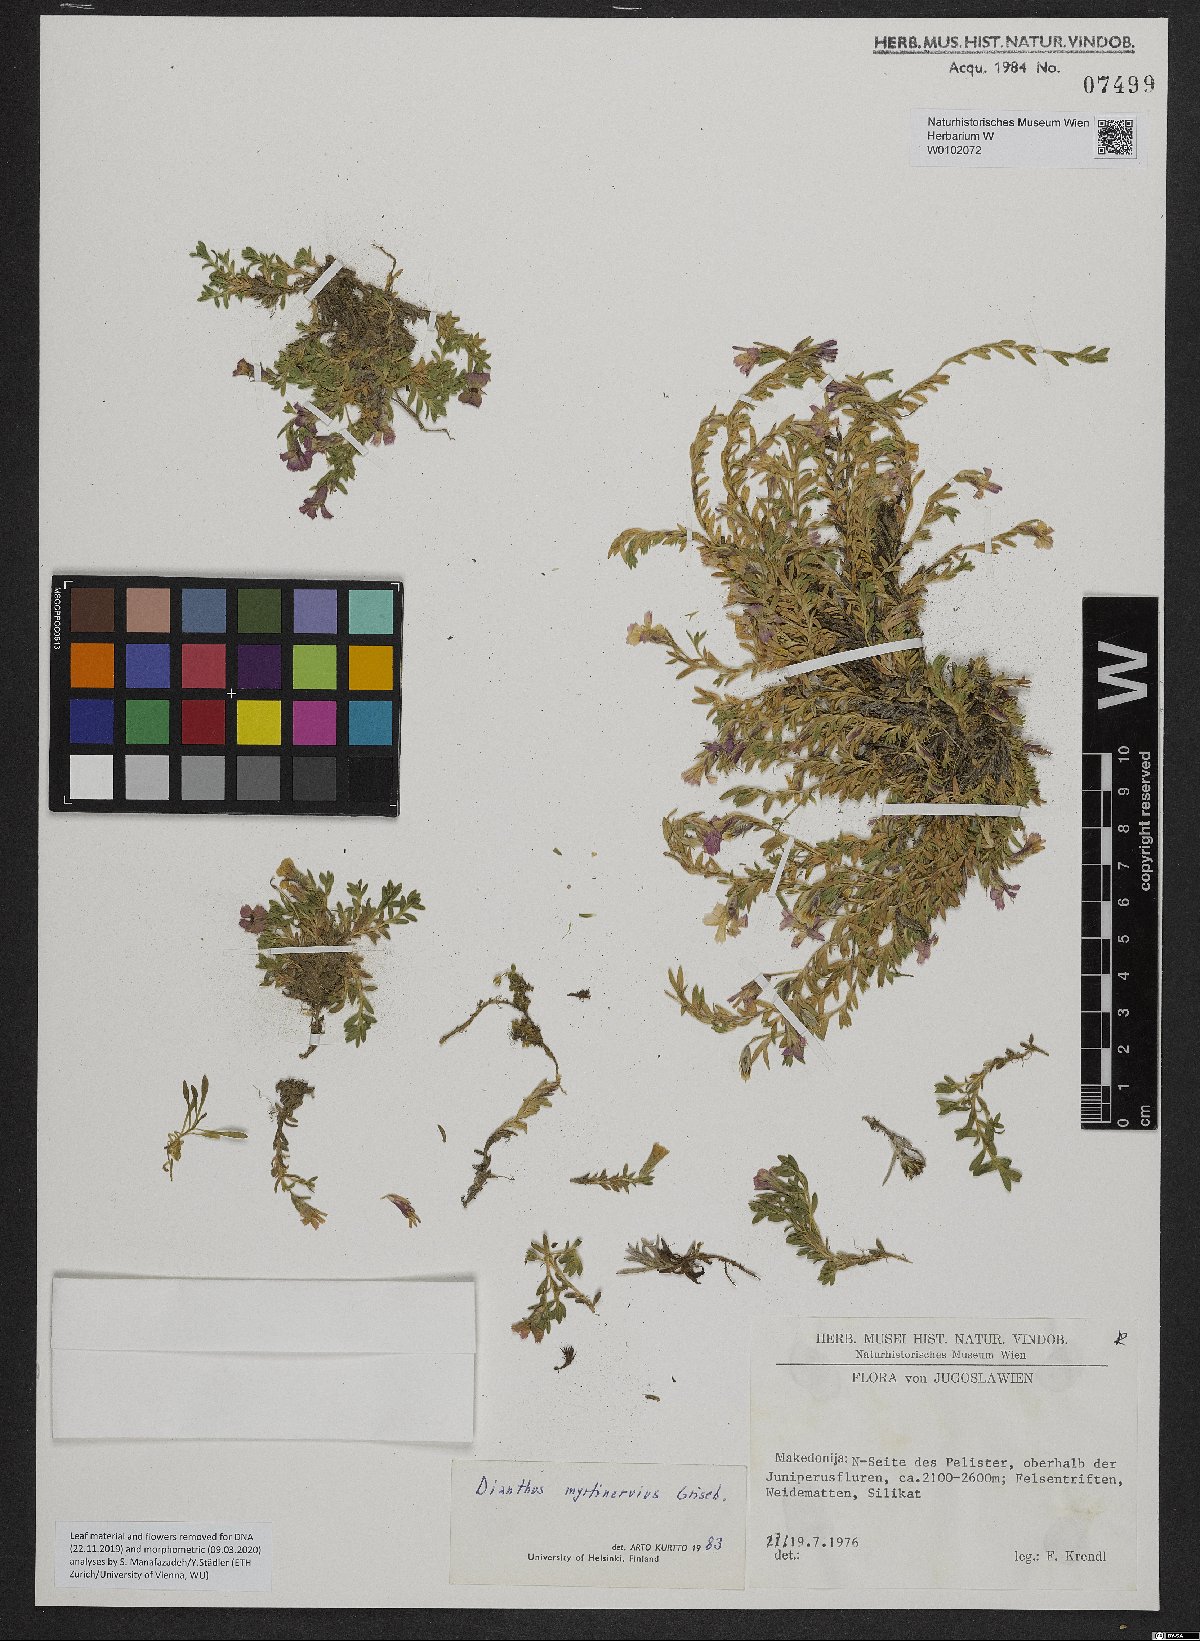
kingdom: Plantae
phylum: Tracheophyta
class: Magnoliopsida
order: Caryophyllales
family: Caryophyllaceae
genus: Dianthus
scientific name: Dianthus myrtinervius
